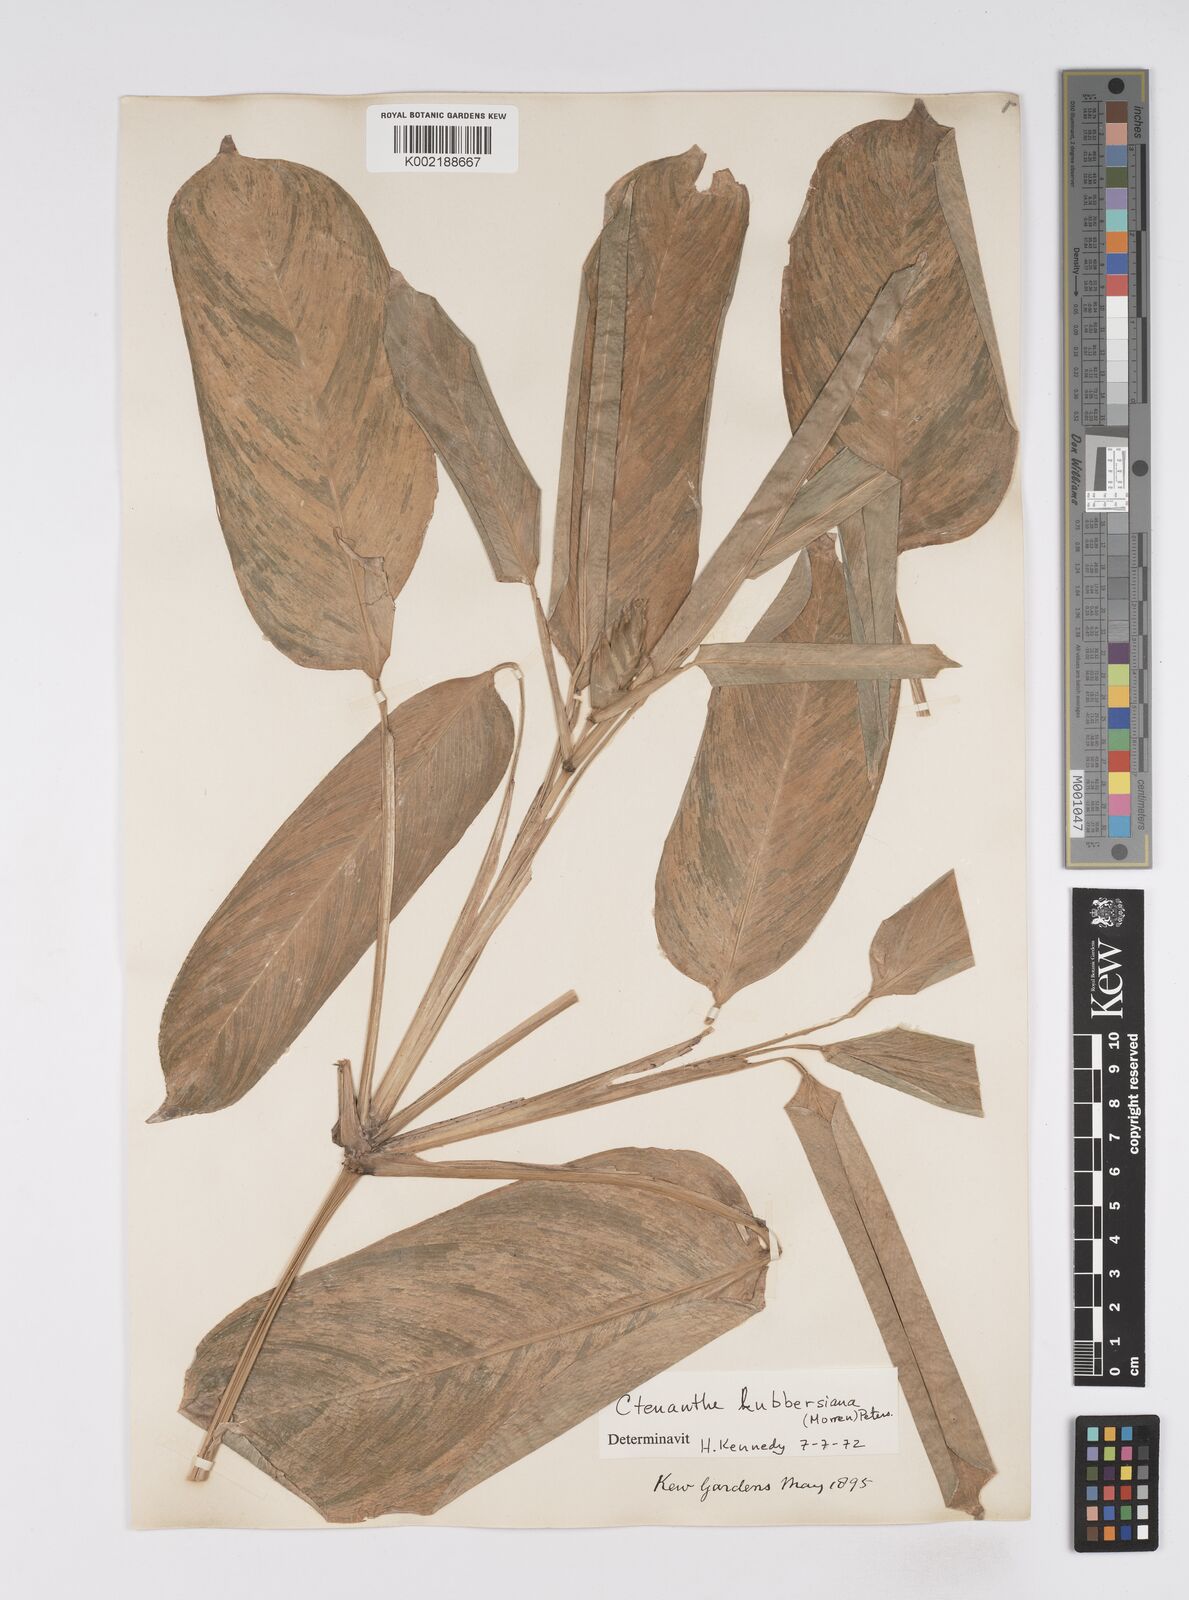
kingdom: Plantae
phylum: Tracheophyta
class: Liliopsida
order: Zingiberales
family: Marantaceae
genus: Ctenanthe
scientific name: Ctenanthe lubbersiana
